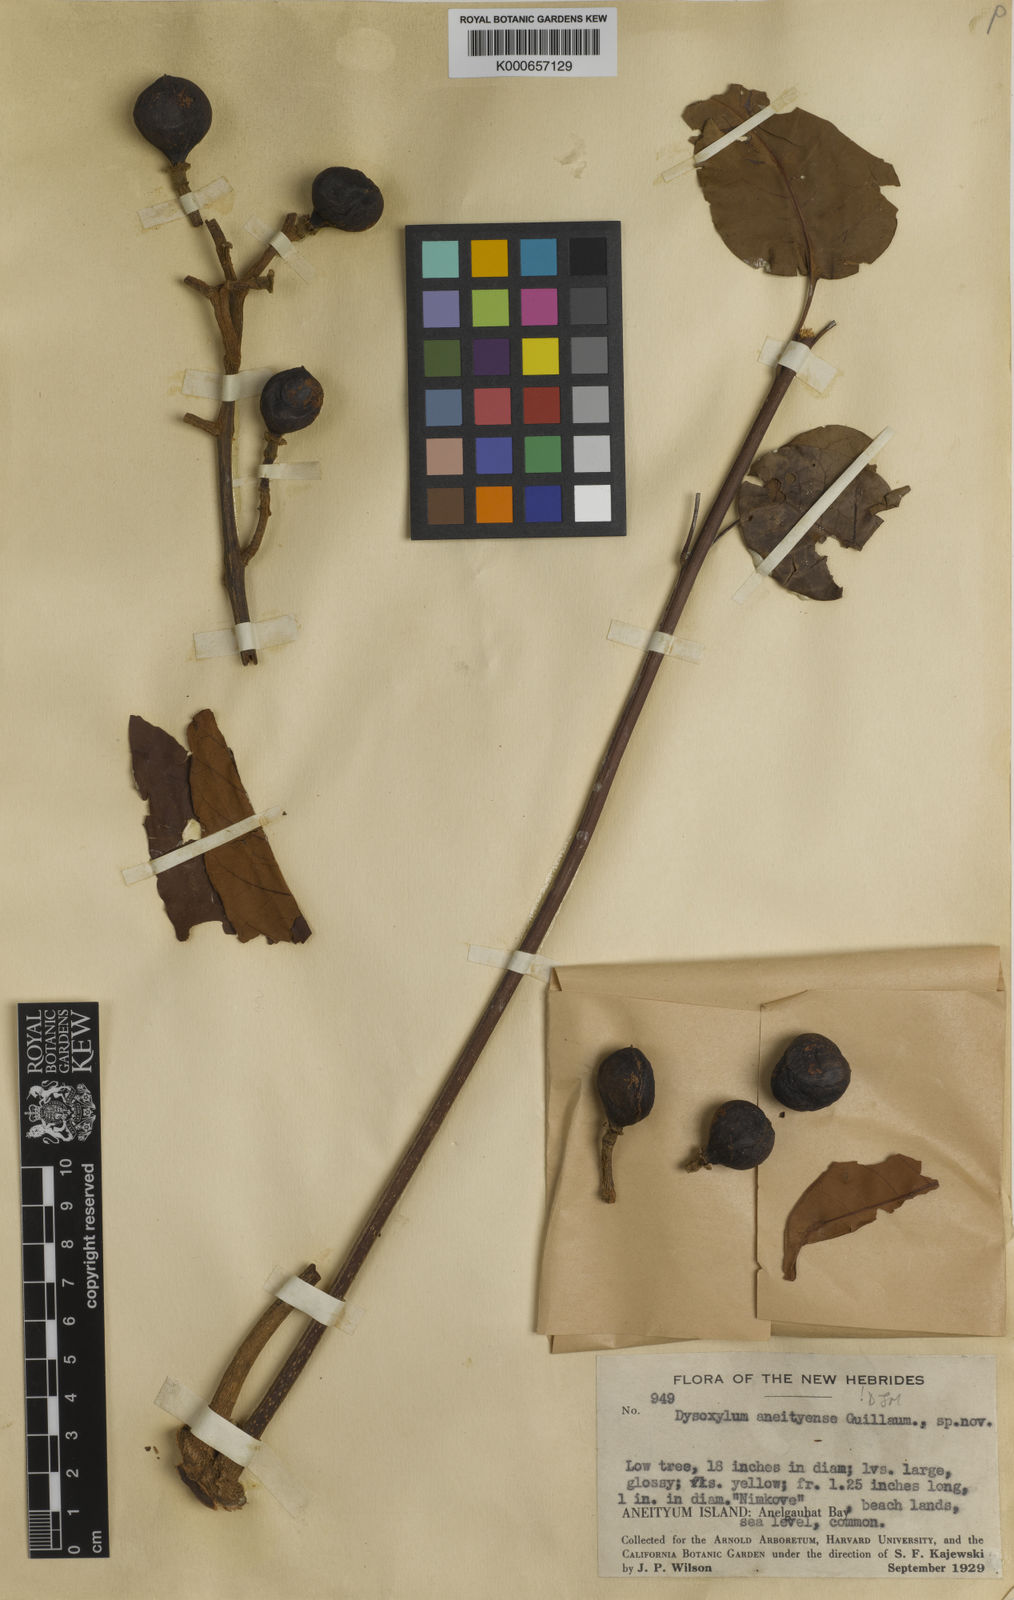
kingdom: Plantae
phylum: Tracheophyta
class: Magnoliopsida
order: Sapindales
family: Meliaceae
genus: Didymocheton
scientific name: Didymocheton aneityensis
